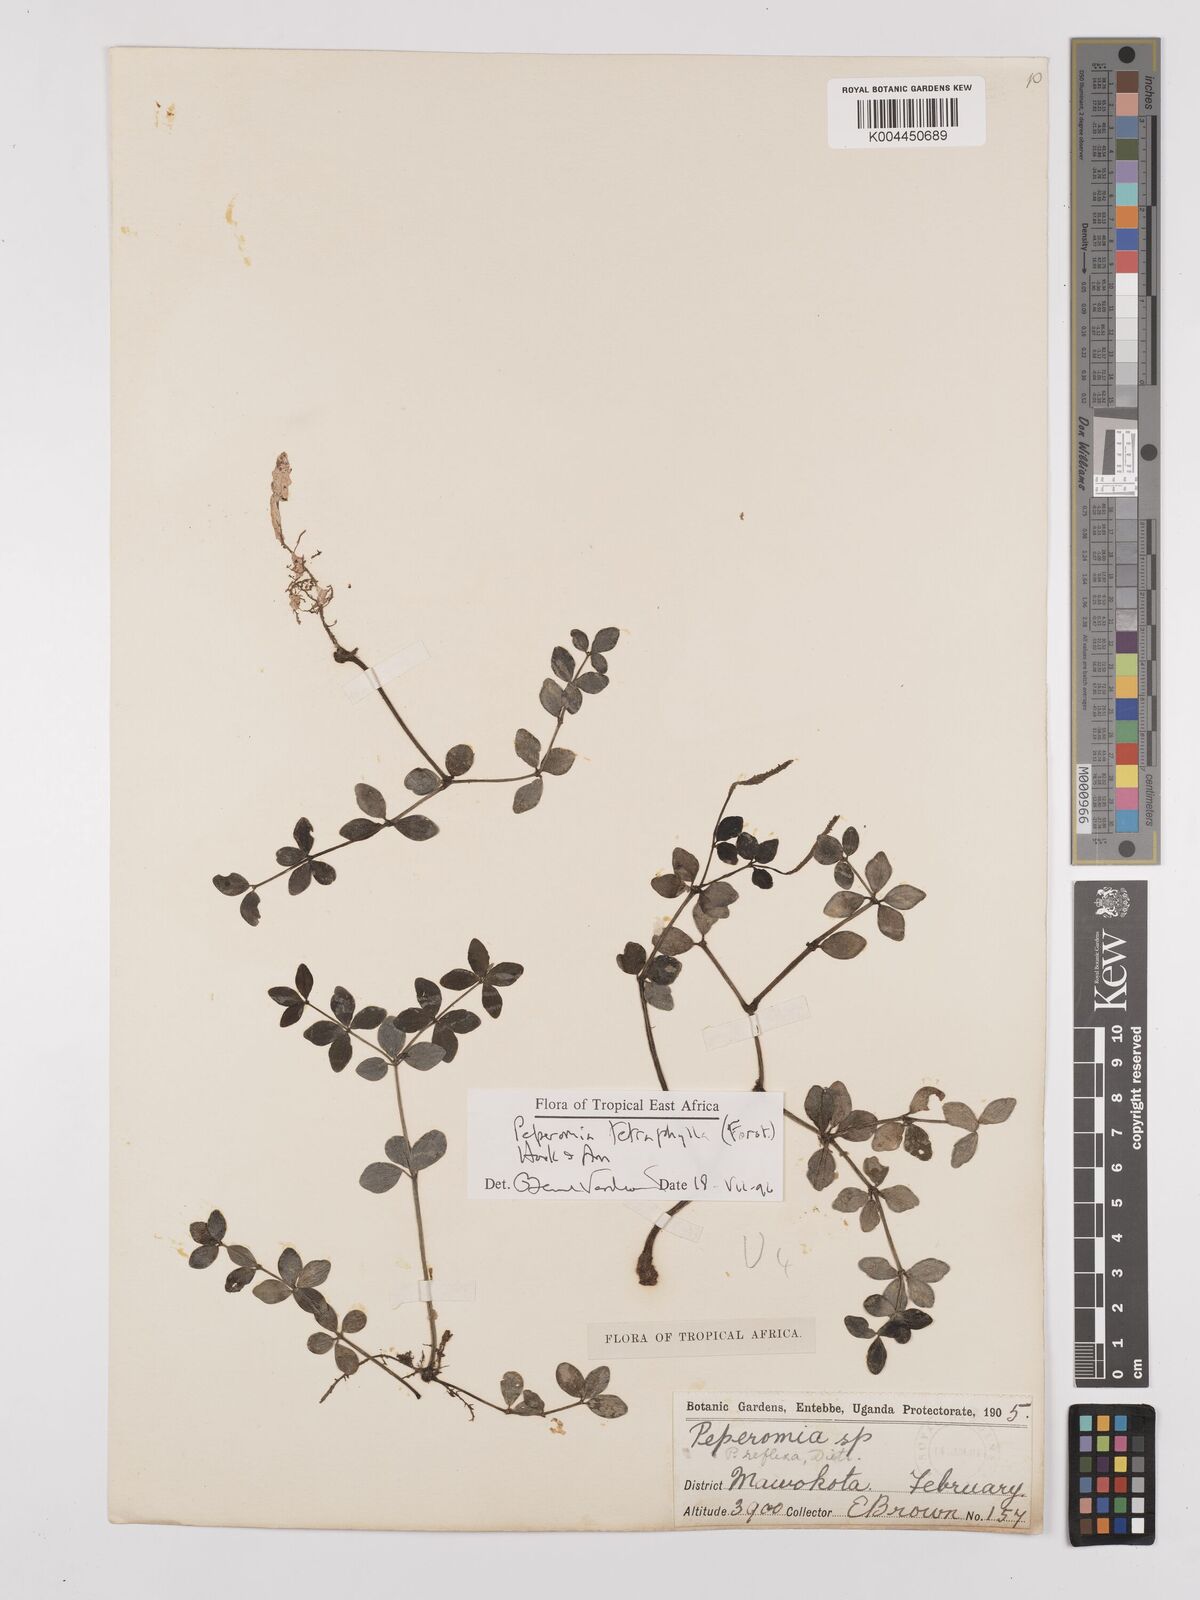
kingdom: Plantae
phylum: Tracheophyta
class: Magnoliopsida
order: Piperales
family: Piperaceae
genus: Peperomia
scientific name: Peperomia tetraphylla
